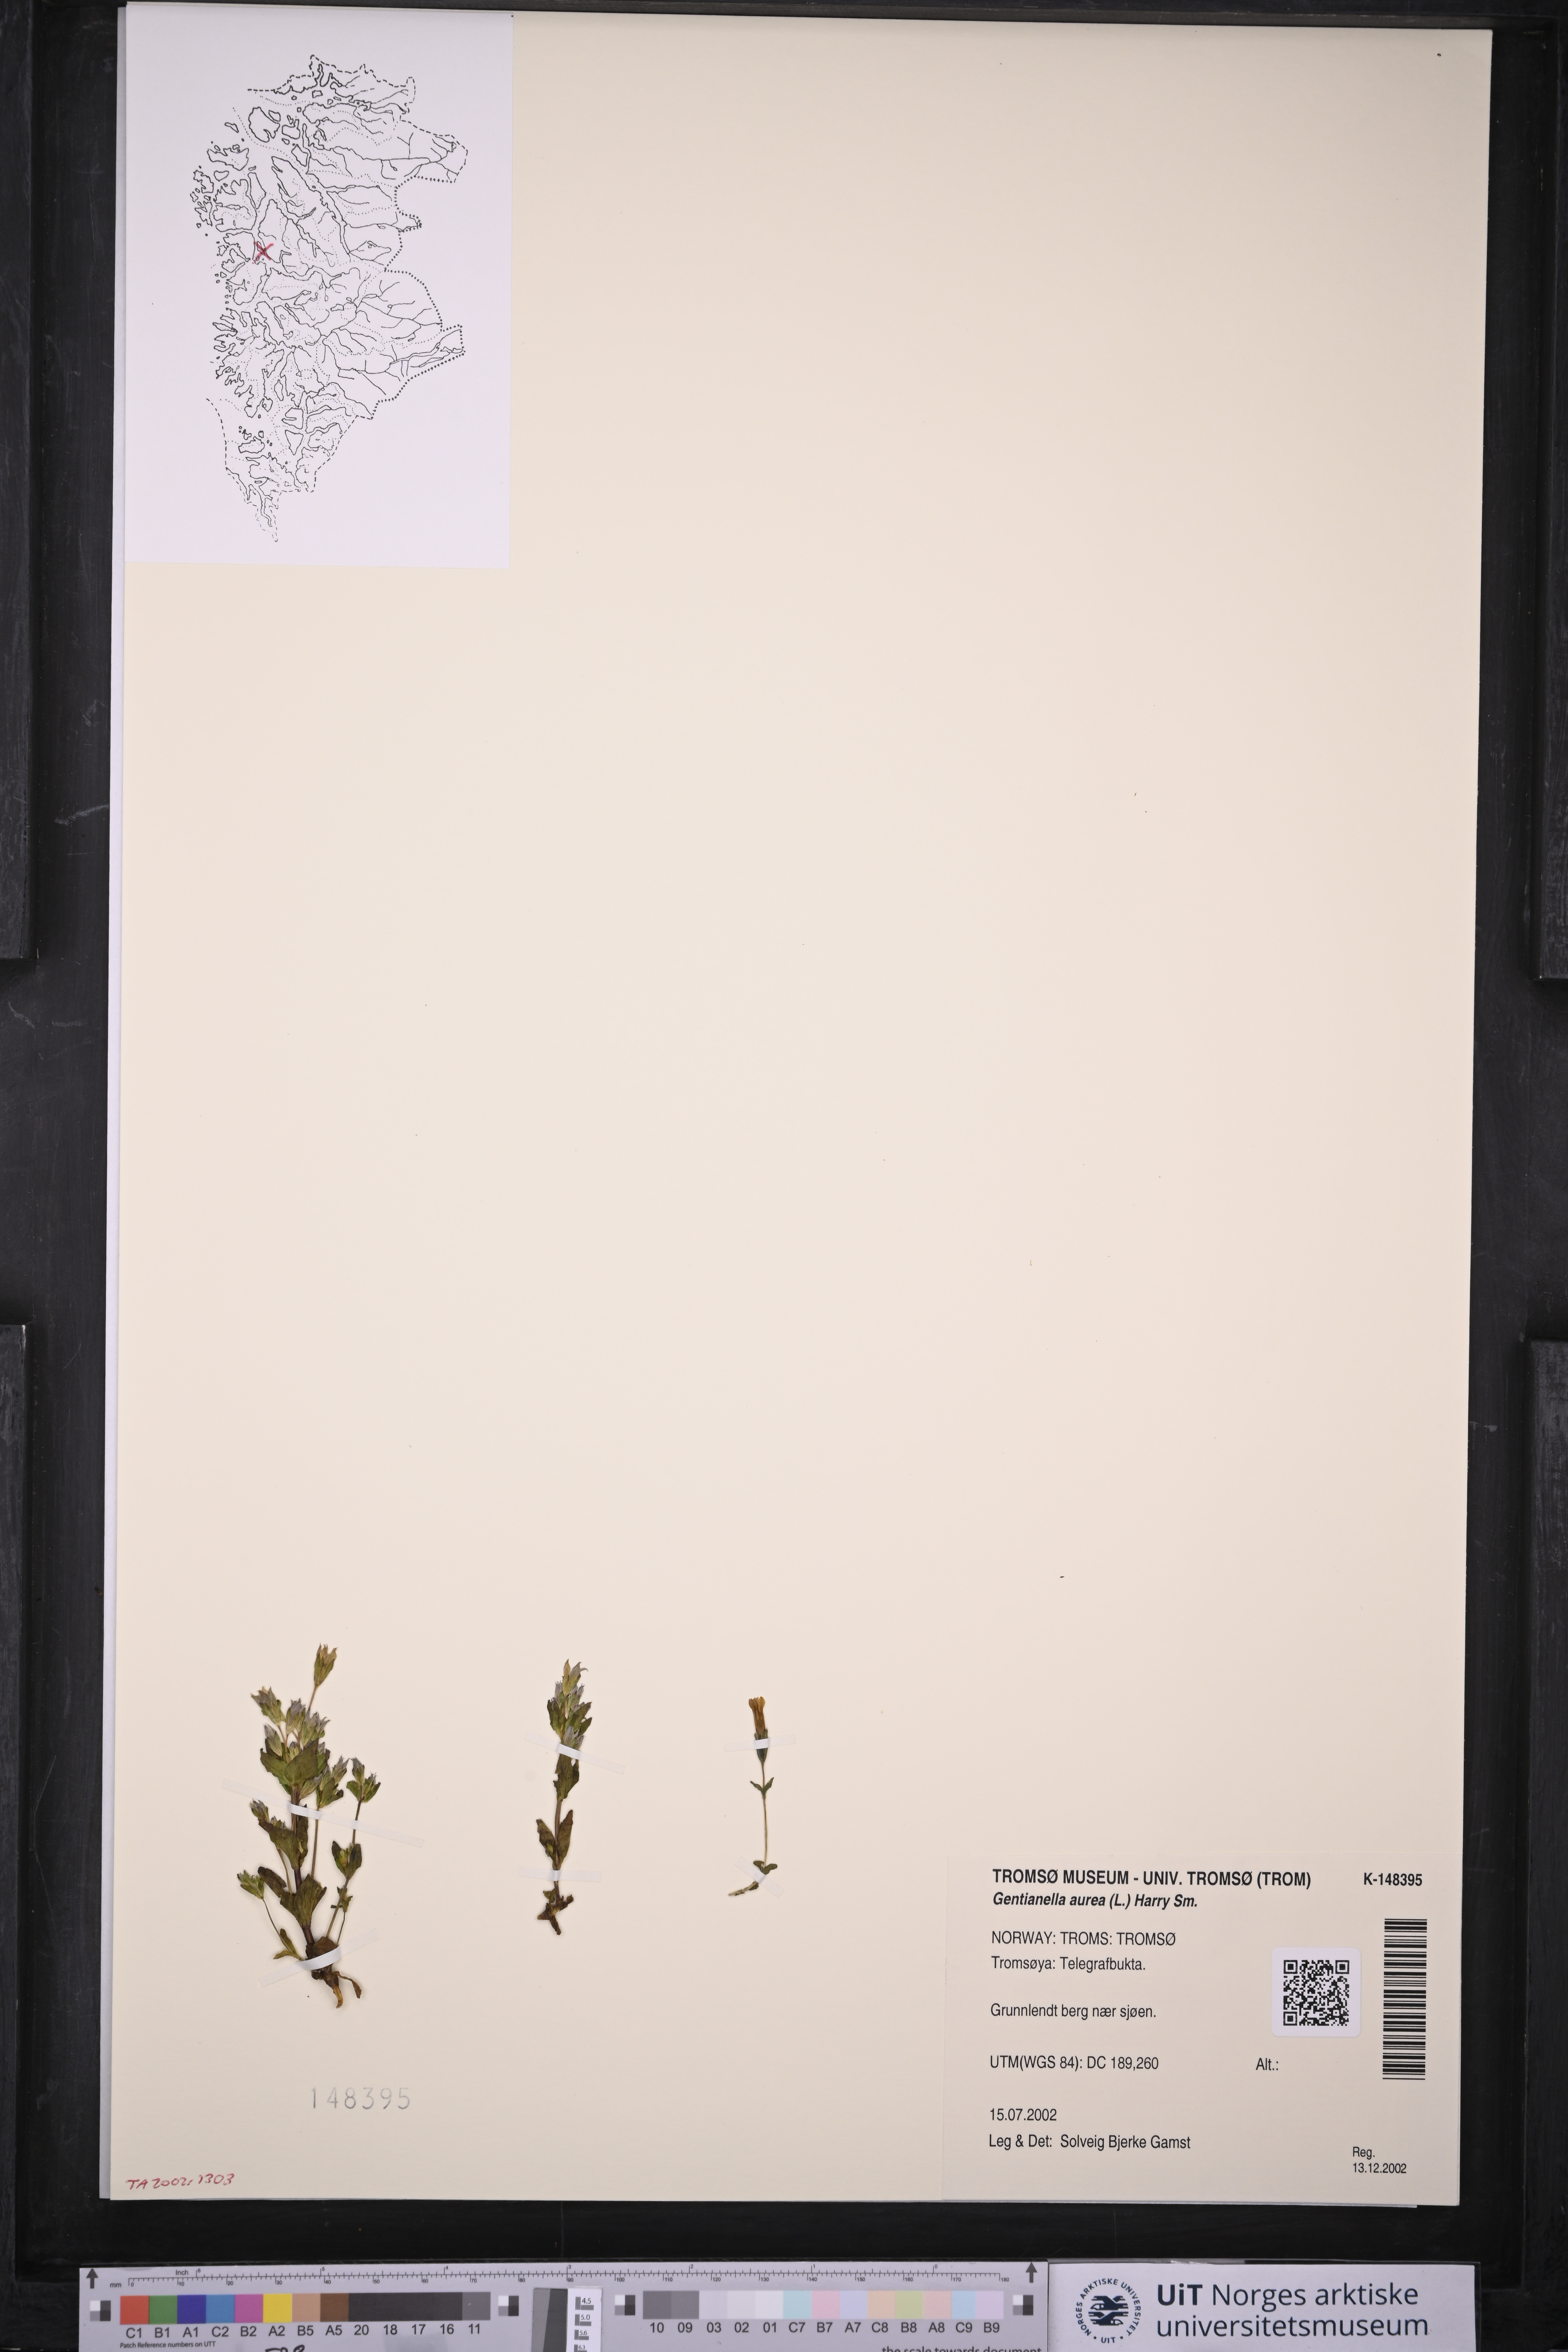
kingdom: Plantae
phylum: Tracheophyta
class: Magnoliopsida
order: Gentianales
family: Gentianaceae
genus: Gentianella
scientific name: Gentianella aurea
